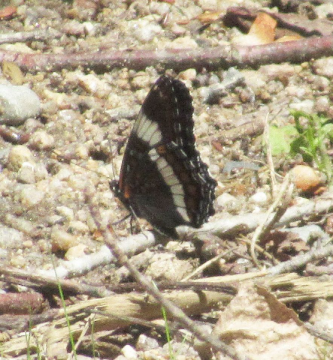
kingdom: Animalia
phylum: Arthropoda
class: Insecta
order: Lepidoptera
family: Nymphalidae
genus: Limenitis
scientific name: Limenitis arthemis
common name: Red-spotted Admiral
